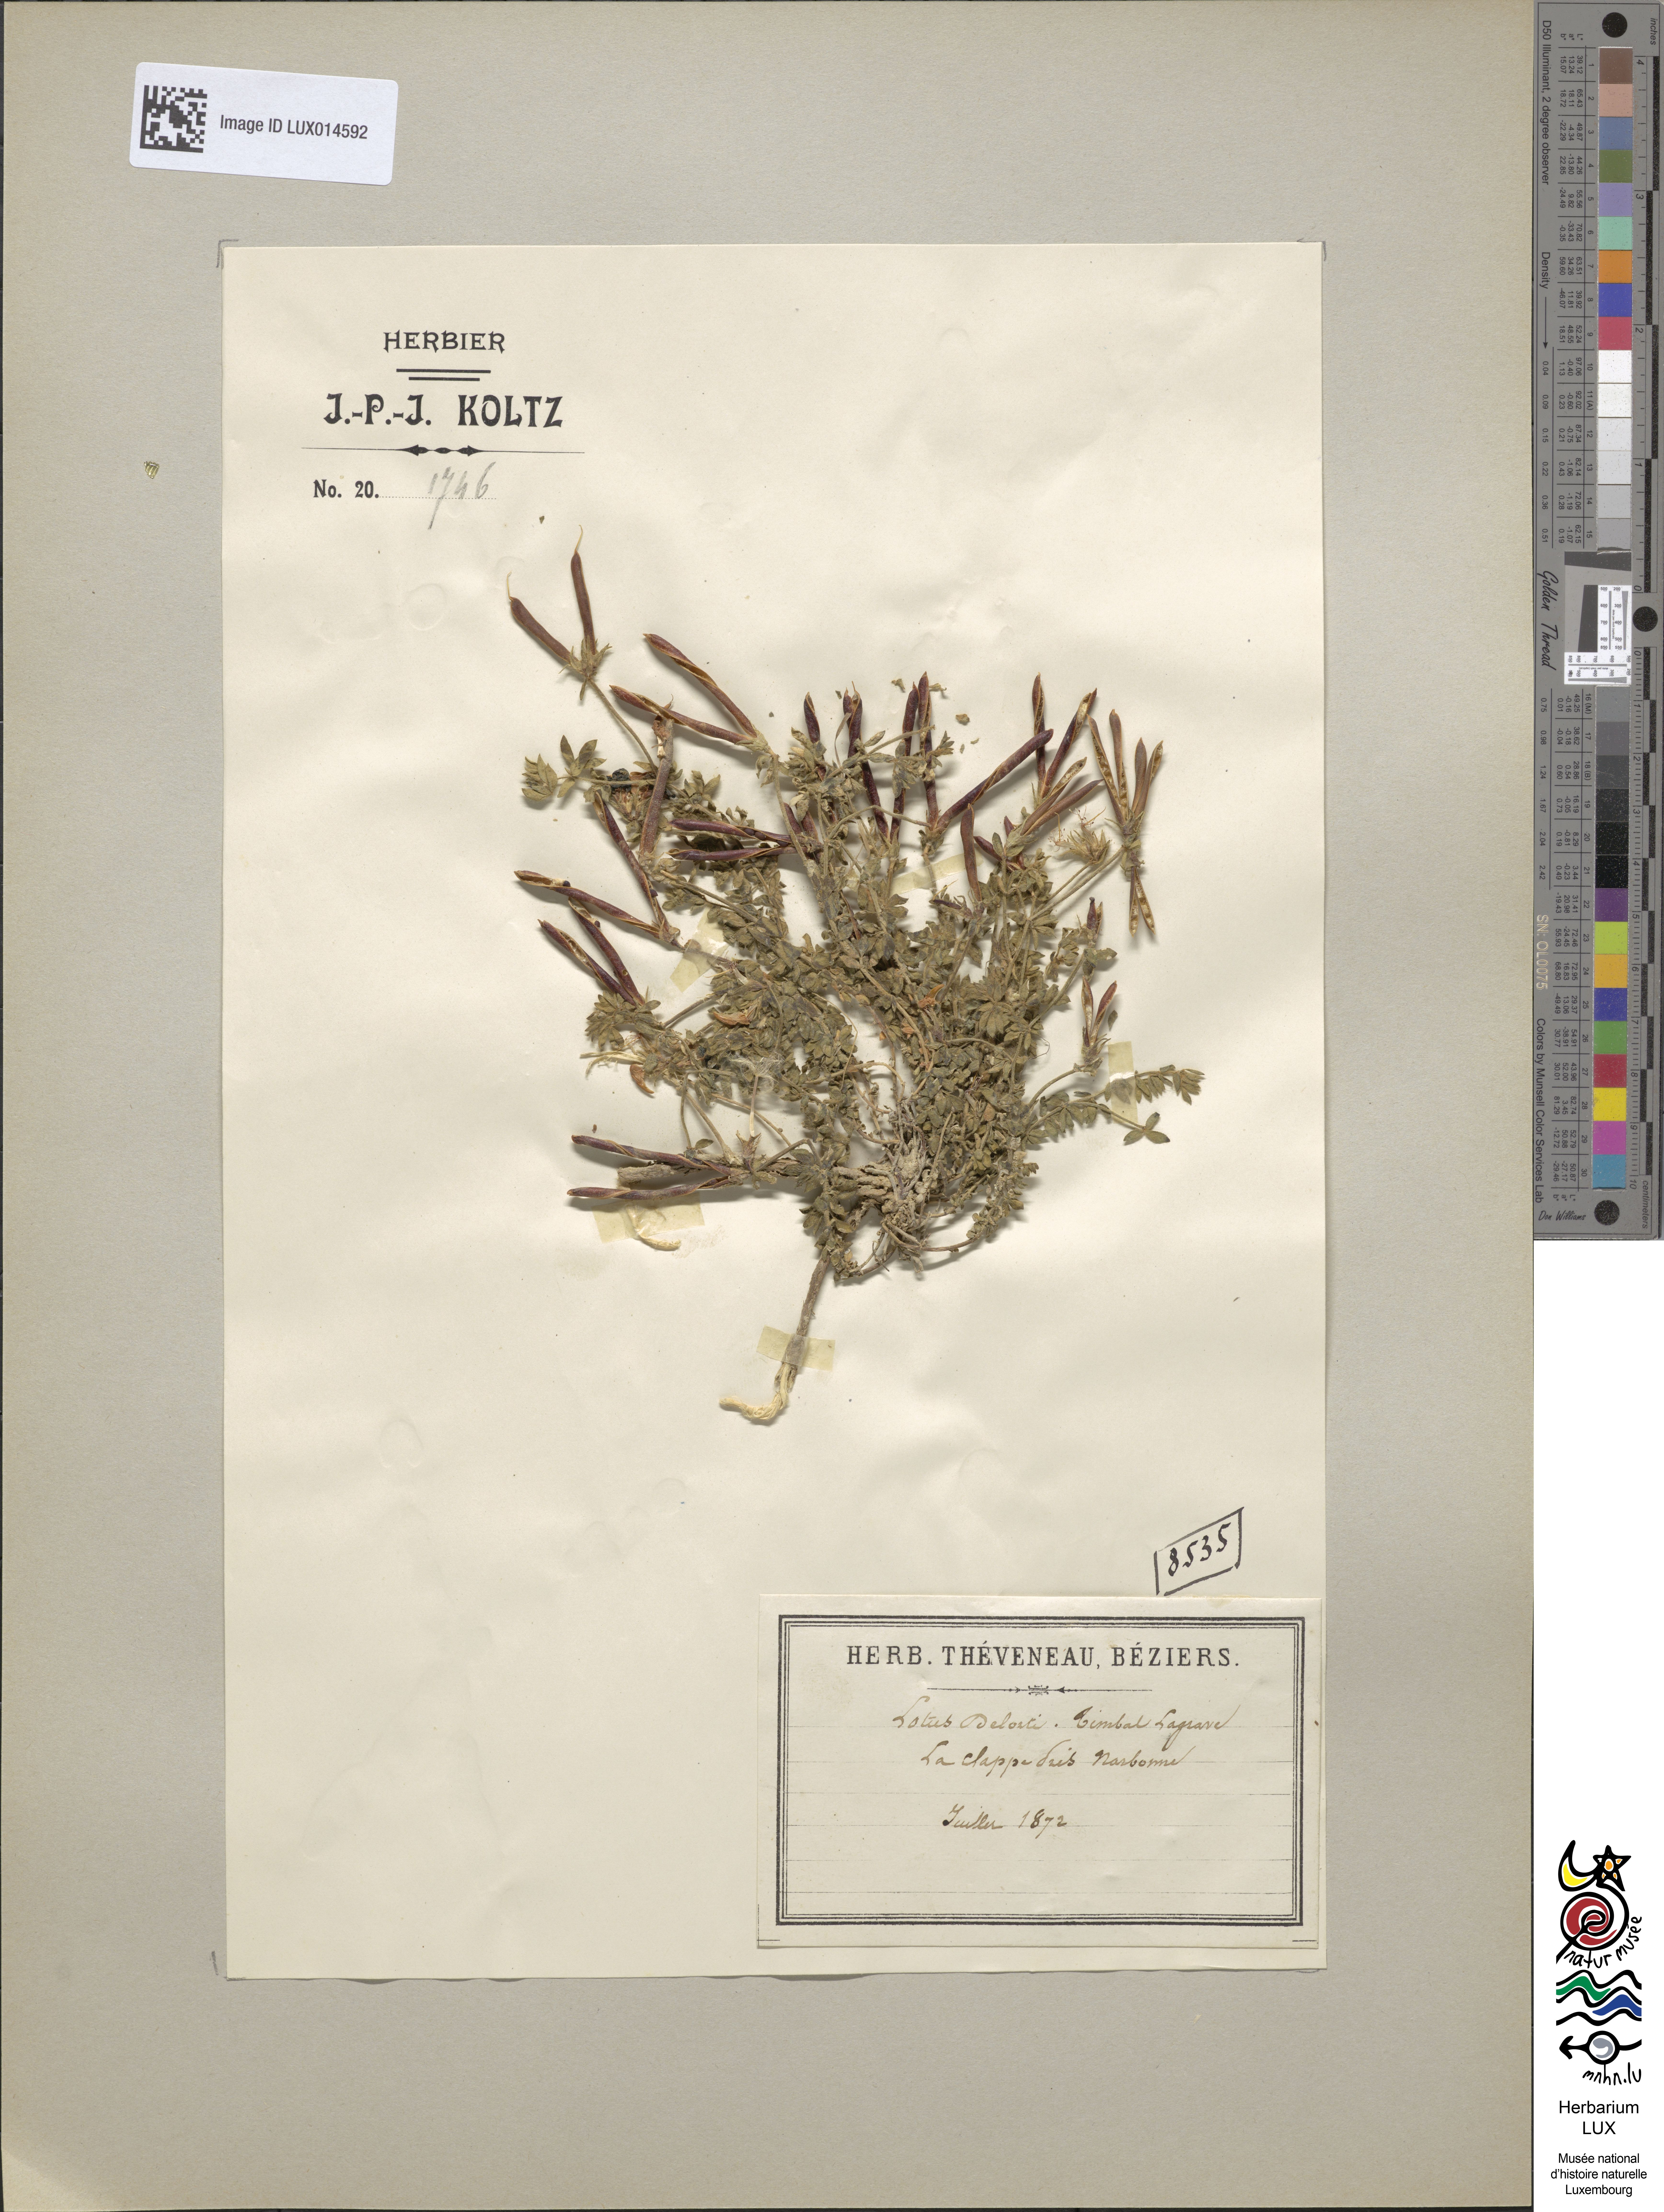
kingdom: Plantae
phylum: Tracheophyta
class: Magnoliopsida
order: Fabales
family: Fabaceae
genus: Lotus
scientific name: Lotus corniculatus
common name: Common bird's-foot-trefoil
